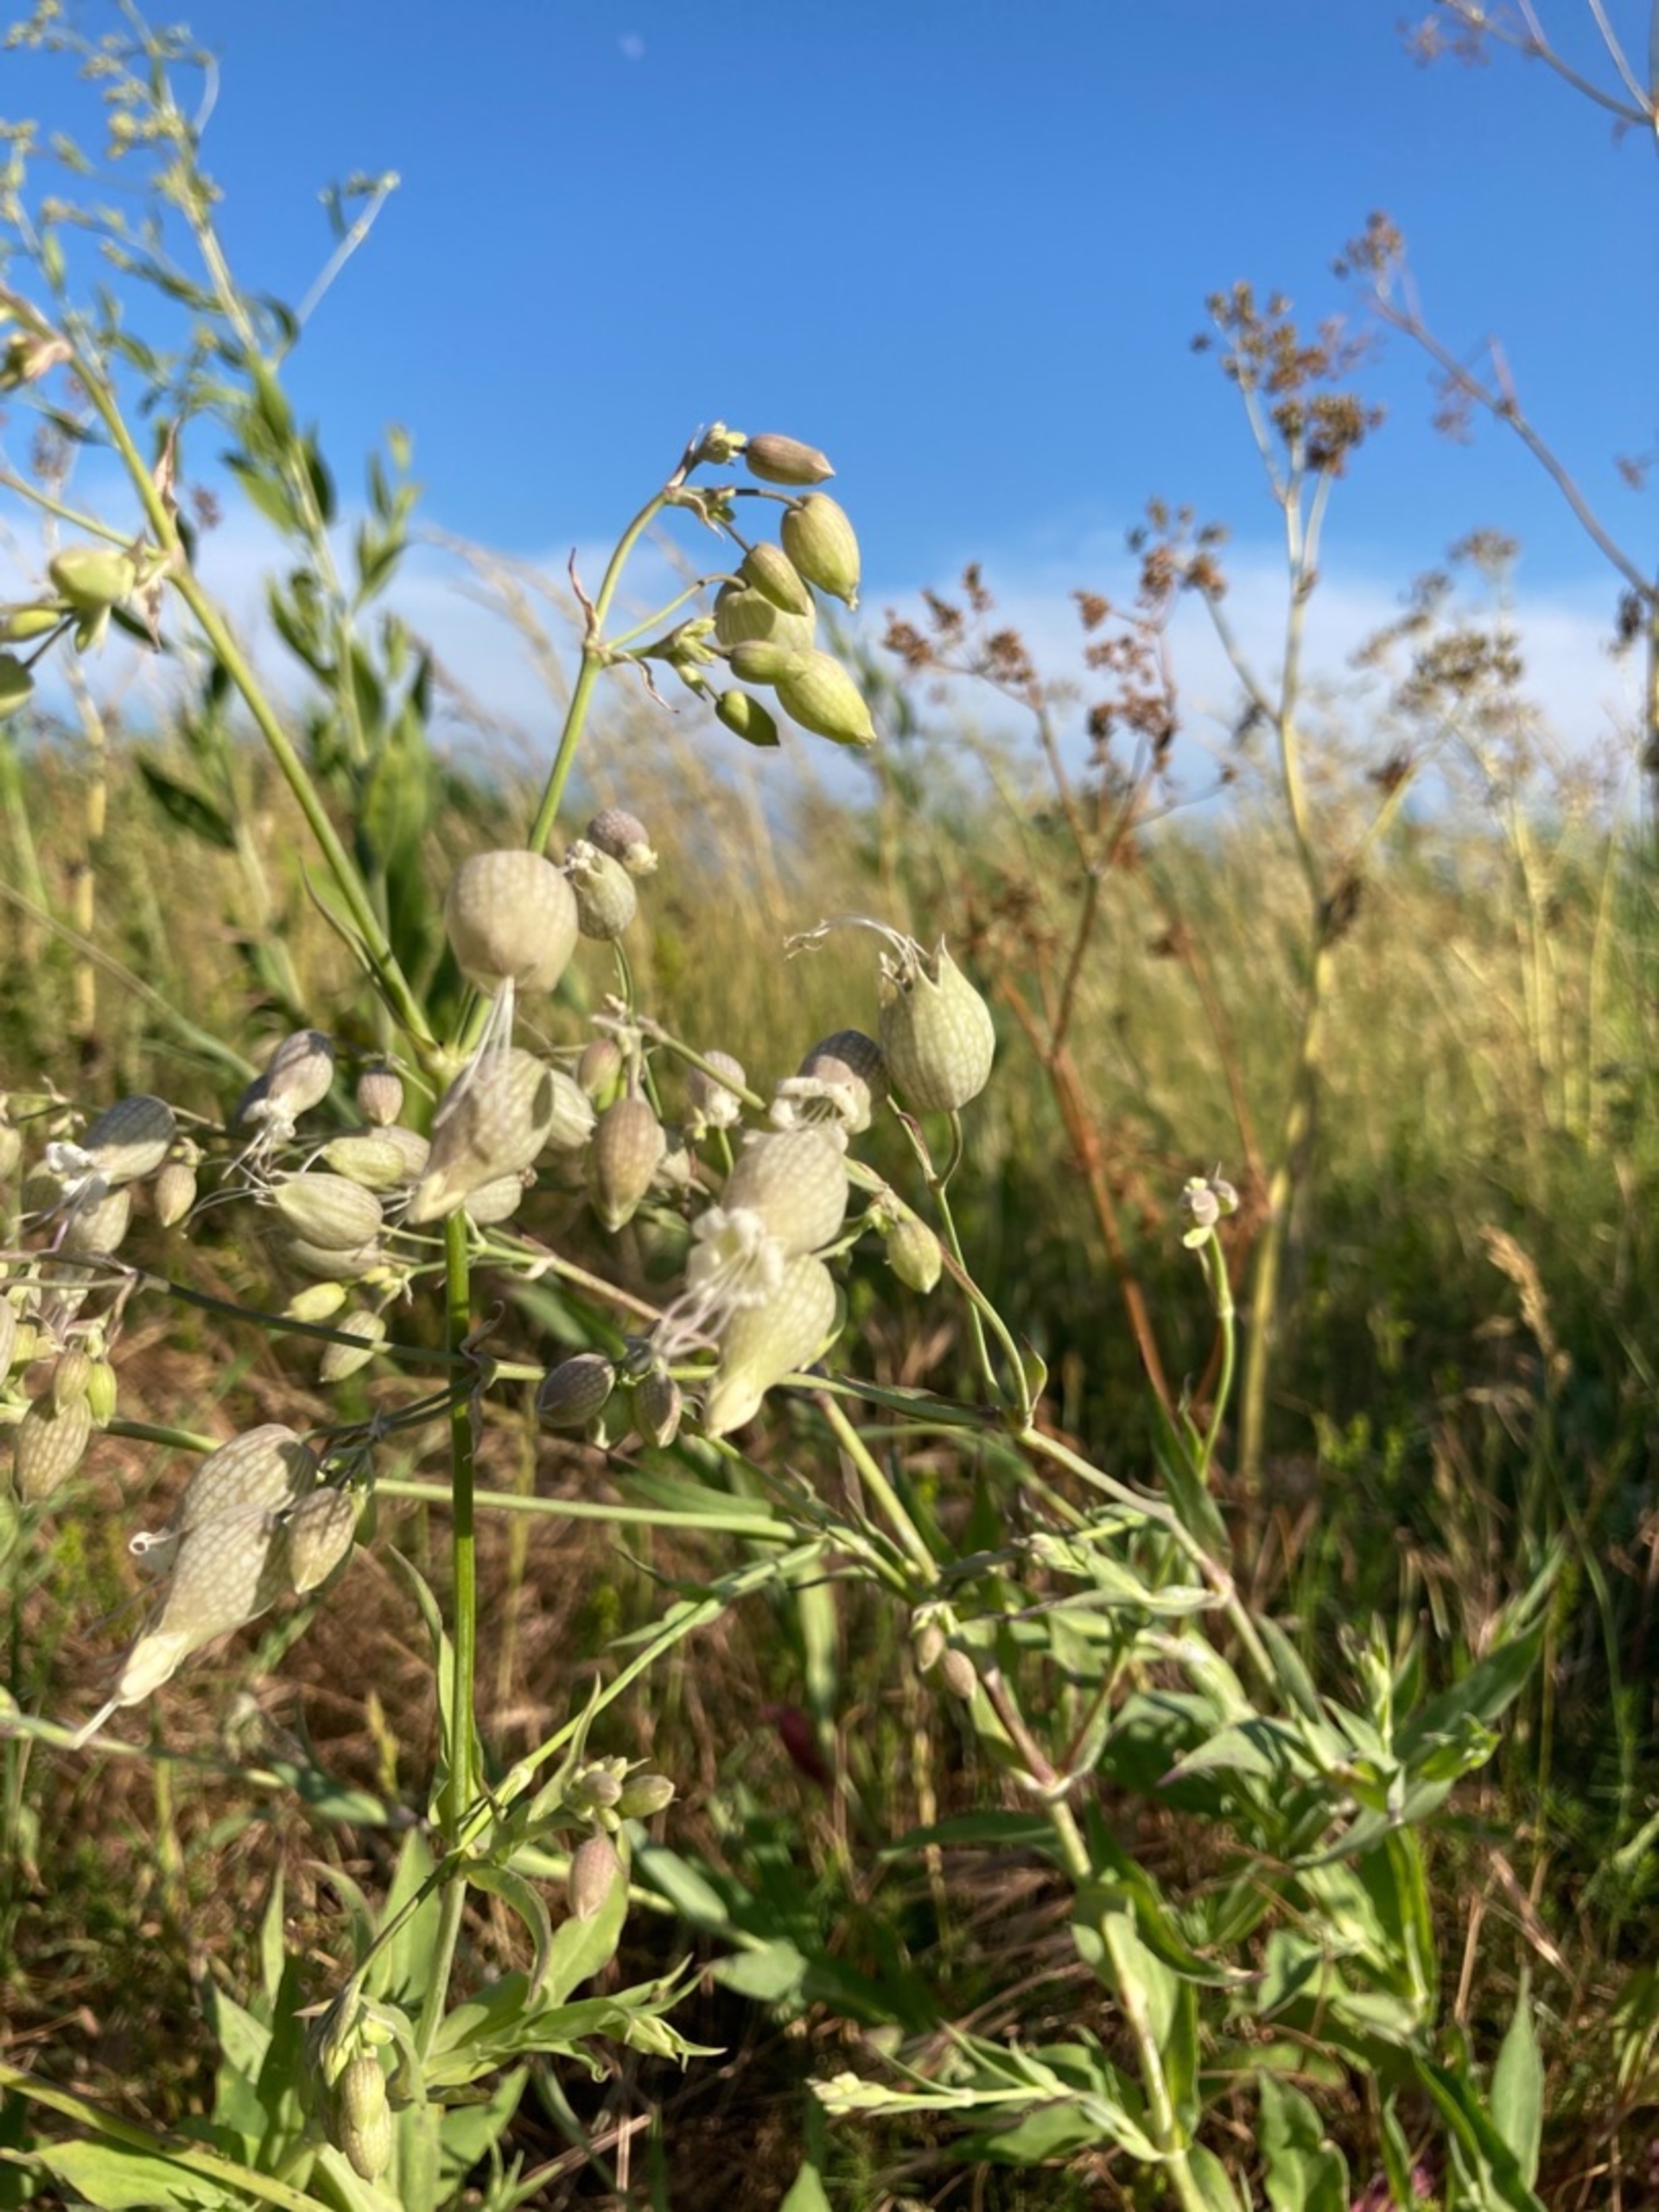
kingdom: Plantae
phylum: Tracheophyta
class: Magnoliopsida
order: Caryophyllales
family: Caryophyllaceae
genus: Silene
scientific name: Silene vulgaris
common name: Blæresmælde
